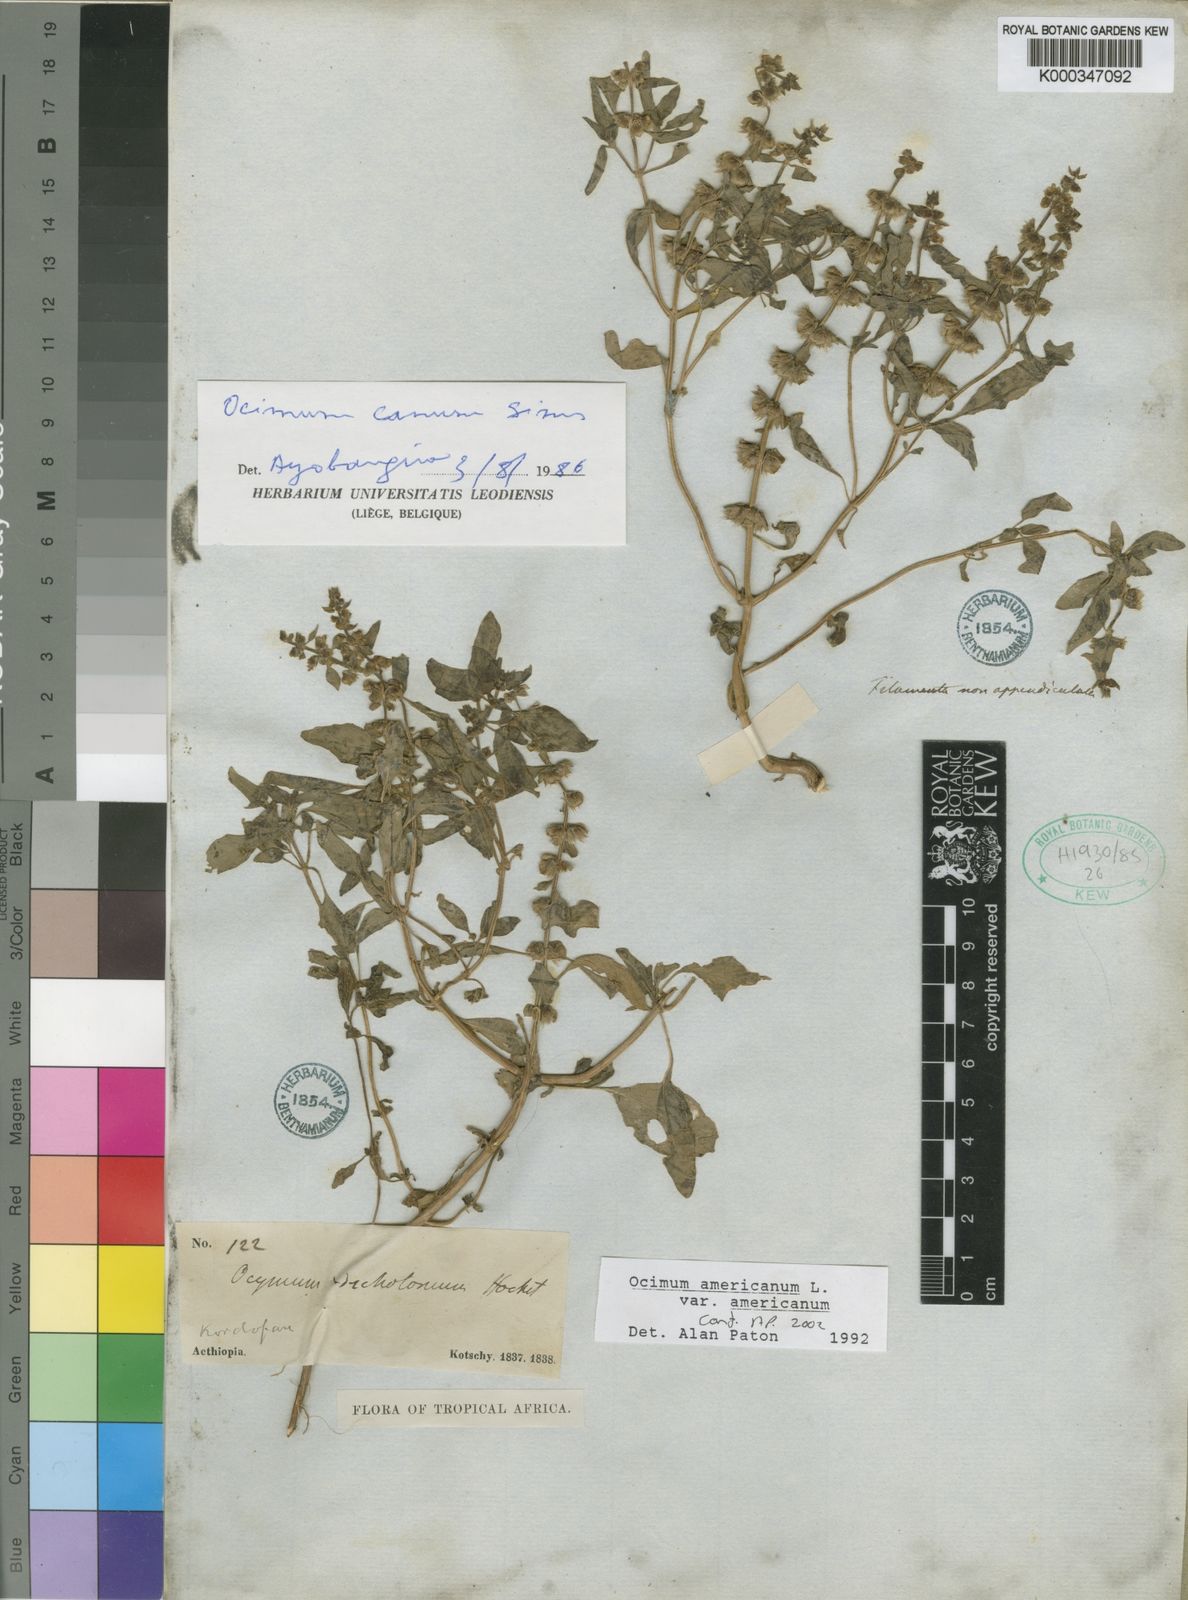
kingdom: Plantae
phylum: Tracheophyta
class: Magnoliopsida
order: Lamiales
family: Lamiaceae
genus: Ocimum
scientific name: Ocimum americanum
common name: American basil
